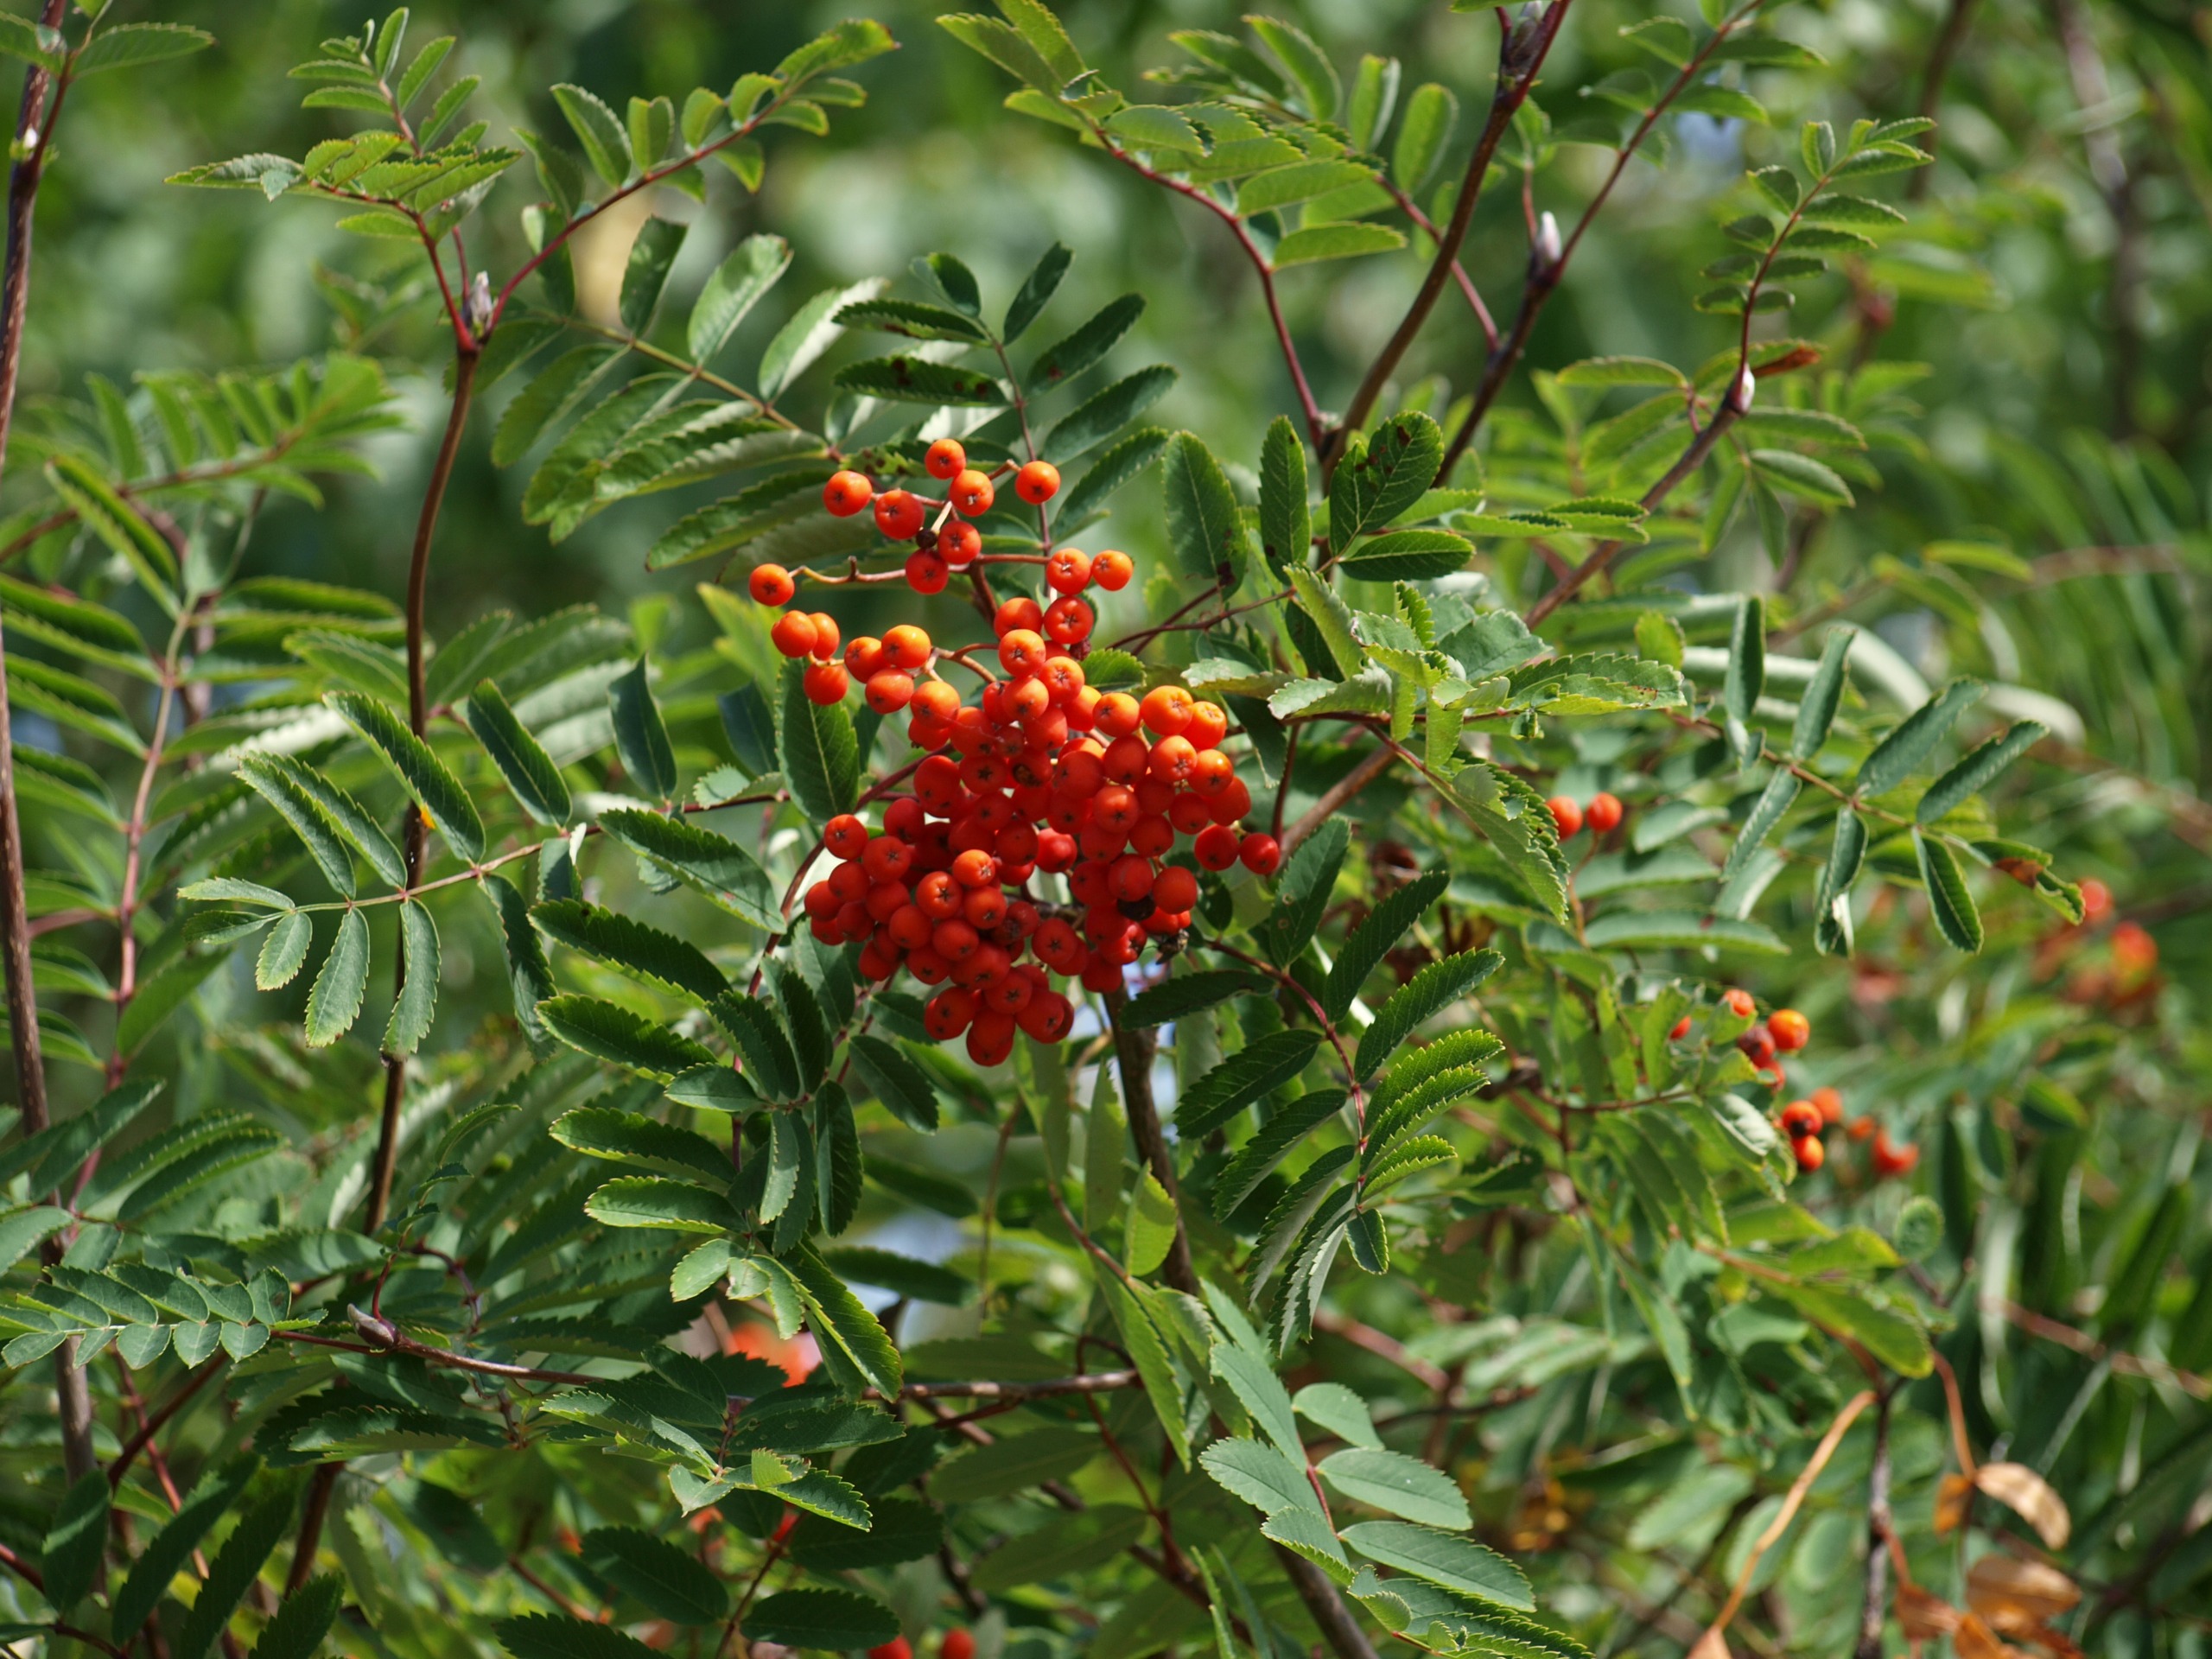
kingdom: Plantae
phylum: Tracheophyta
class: Magnoliopsida
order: Rosales
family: Rosaceae
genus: Sorbus
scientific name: Sorbus aucuparia
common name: Almindelig røn
